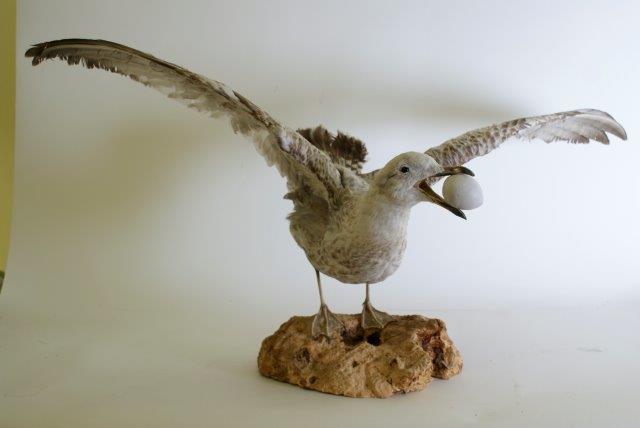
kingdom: Animalia
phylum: Chordata
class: Aves
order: Charadriiformes
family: Laridae
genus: Larus
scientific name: Larus argentatus
